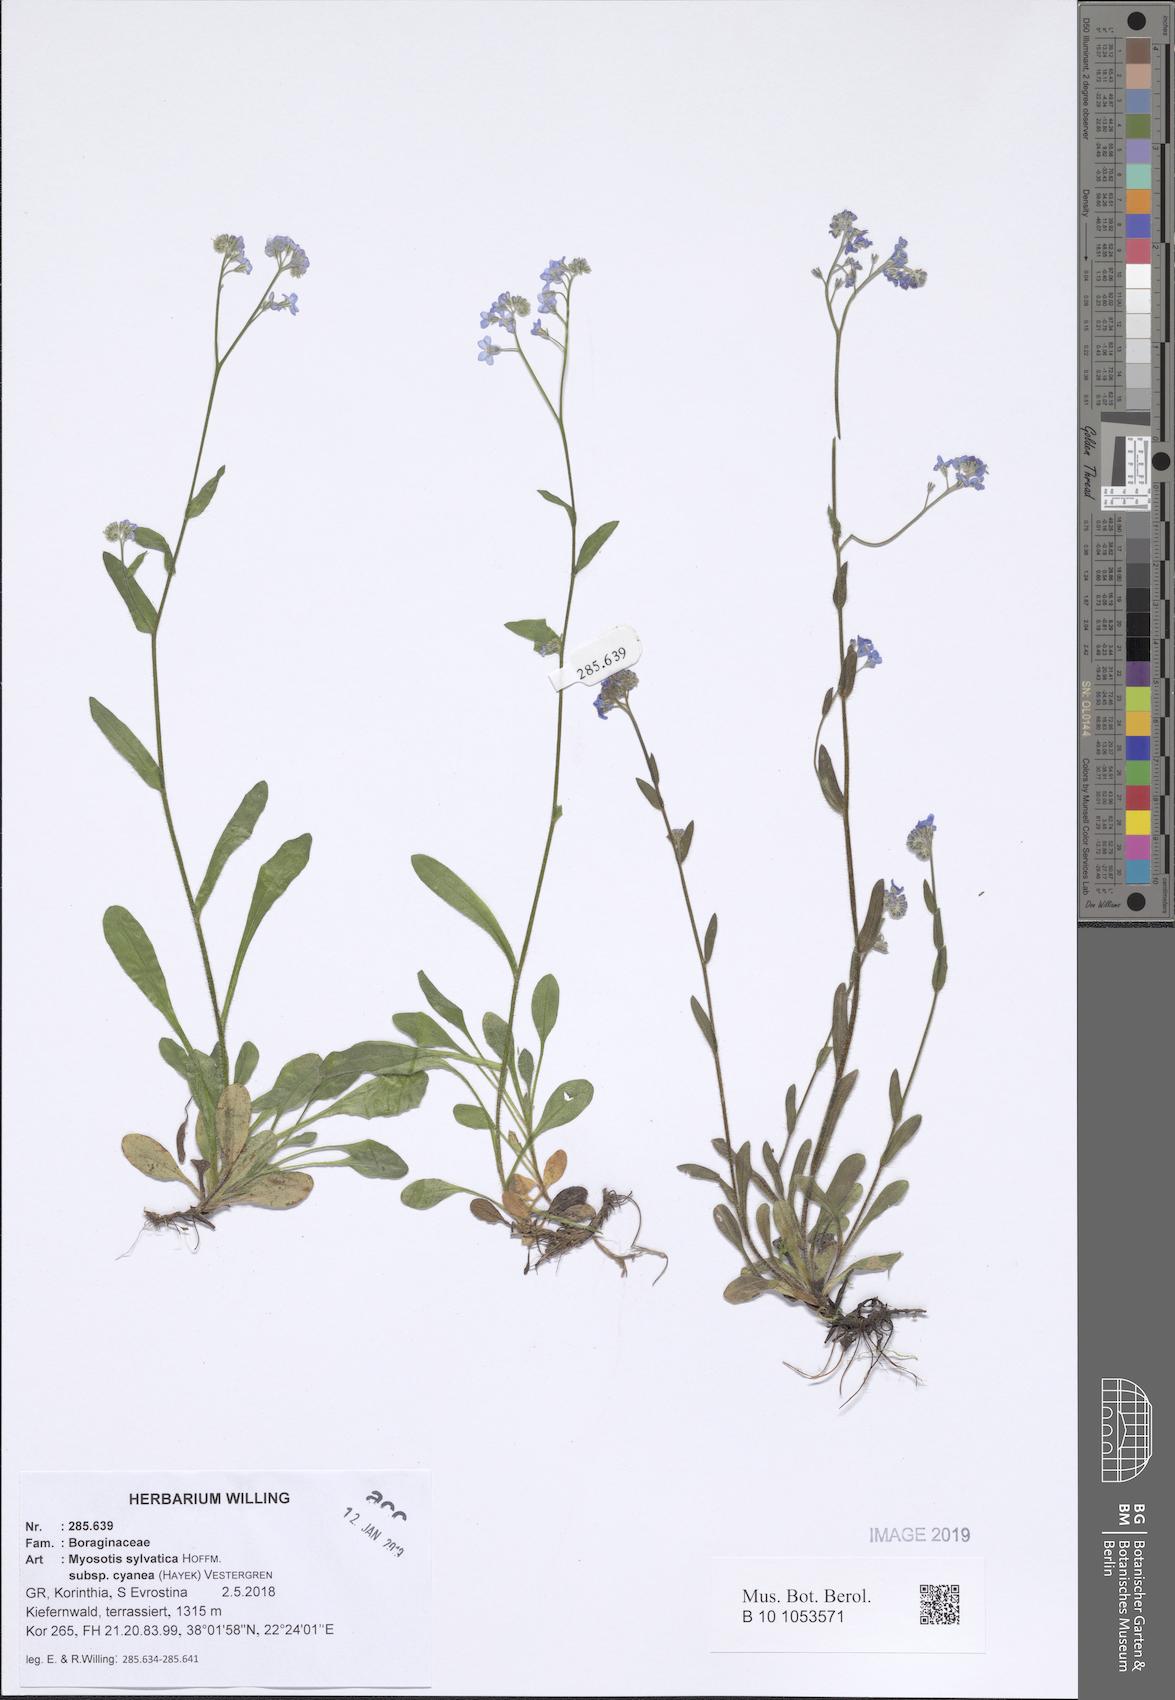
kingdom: Plantae
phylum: Tracheophyta
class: Magnoliopsida
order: Boraginales
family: Boraginaceae
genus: Myosotis
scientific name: Myosotis sylvatica
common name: Wood forget-me-not
